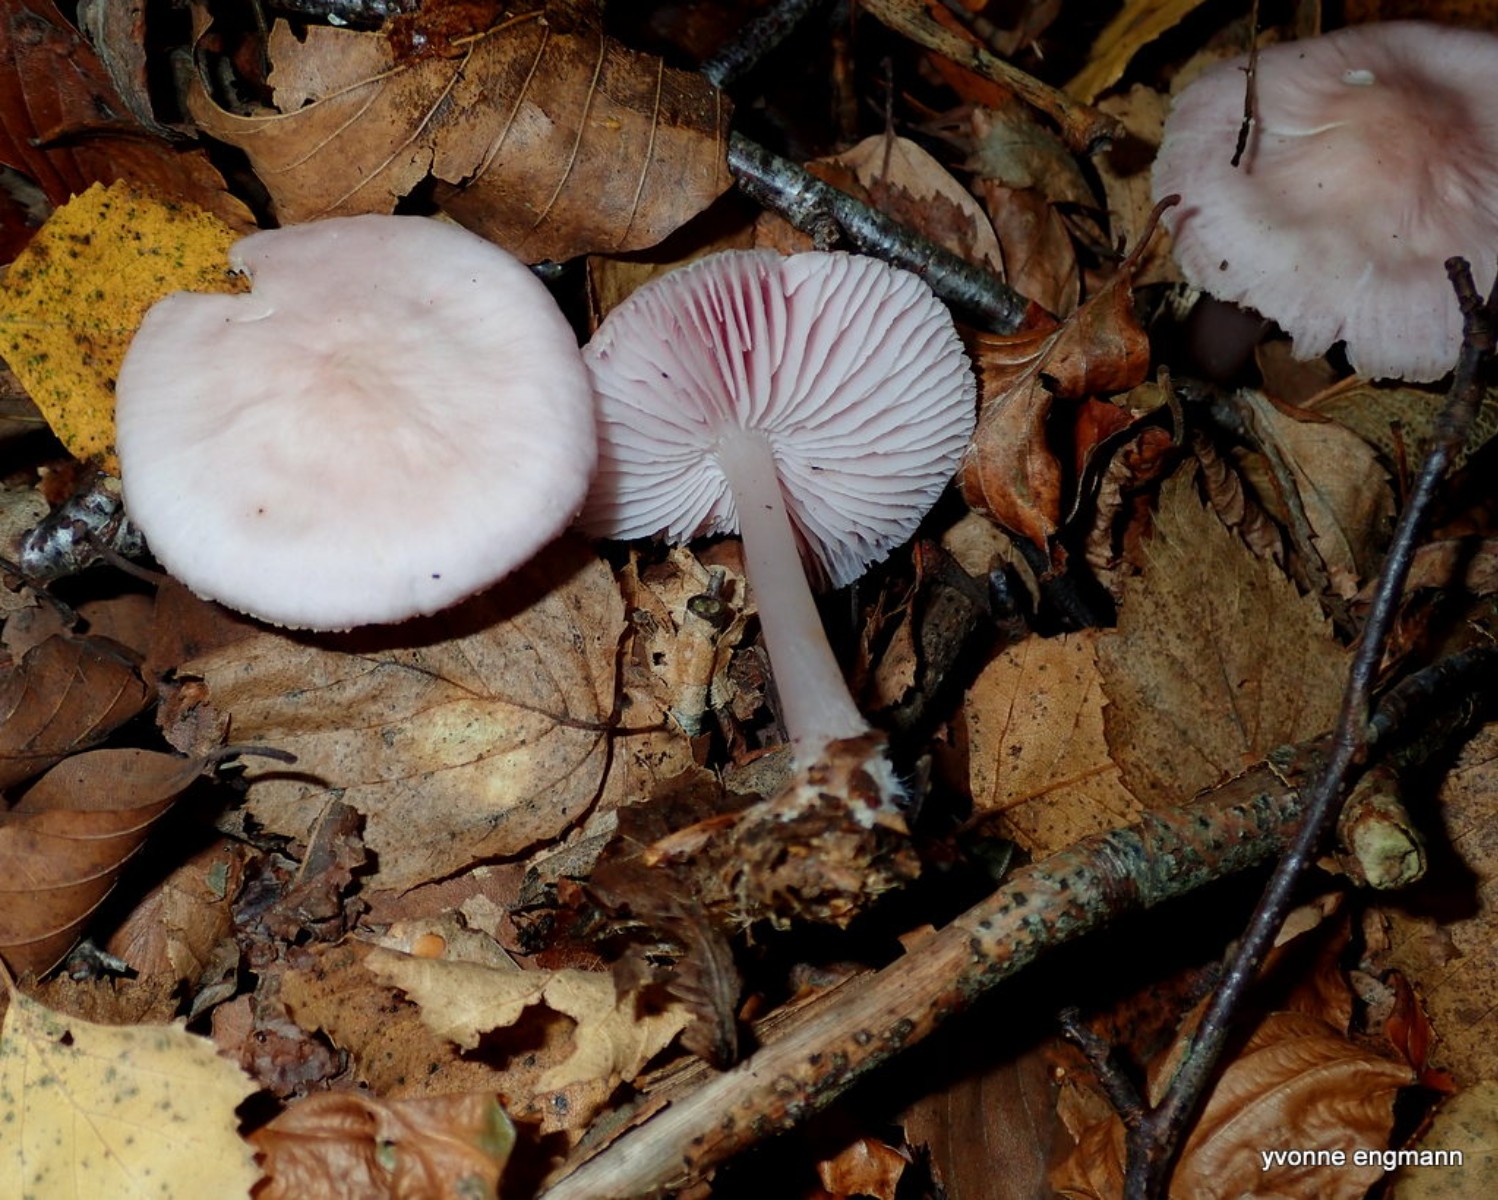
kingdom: Fungi
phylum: Basidiomycota
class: Agaricomycetes
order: Agaricales
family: Mycenaceae
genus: Mycena
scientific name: Mycena rosea
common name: rosa huesvamp
